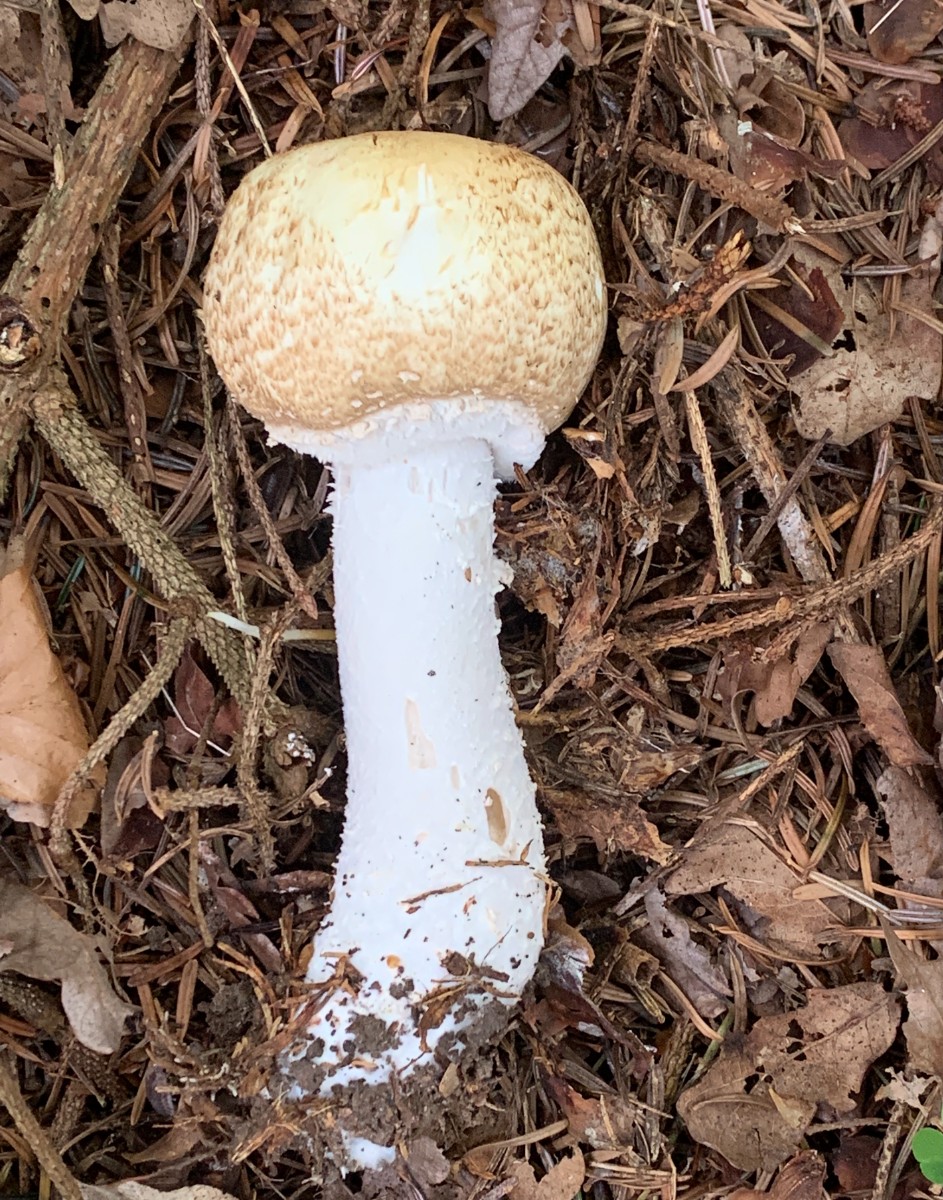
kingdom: Fungi
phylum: Basidiomycota
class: Agaricomycetes
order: Agaricales
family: Agaricaceae
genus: Agaricus
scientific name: Agaricus augustus
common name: prægtig champignon
